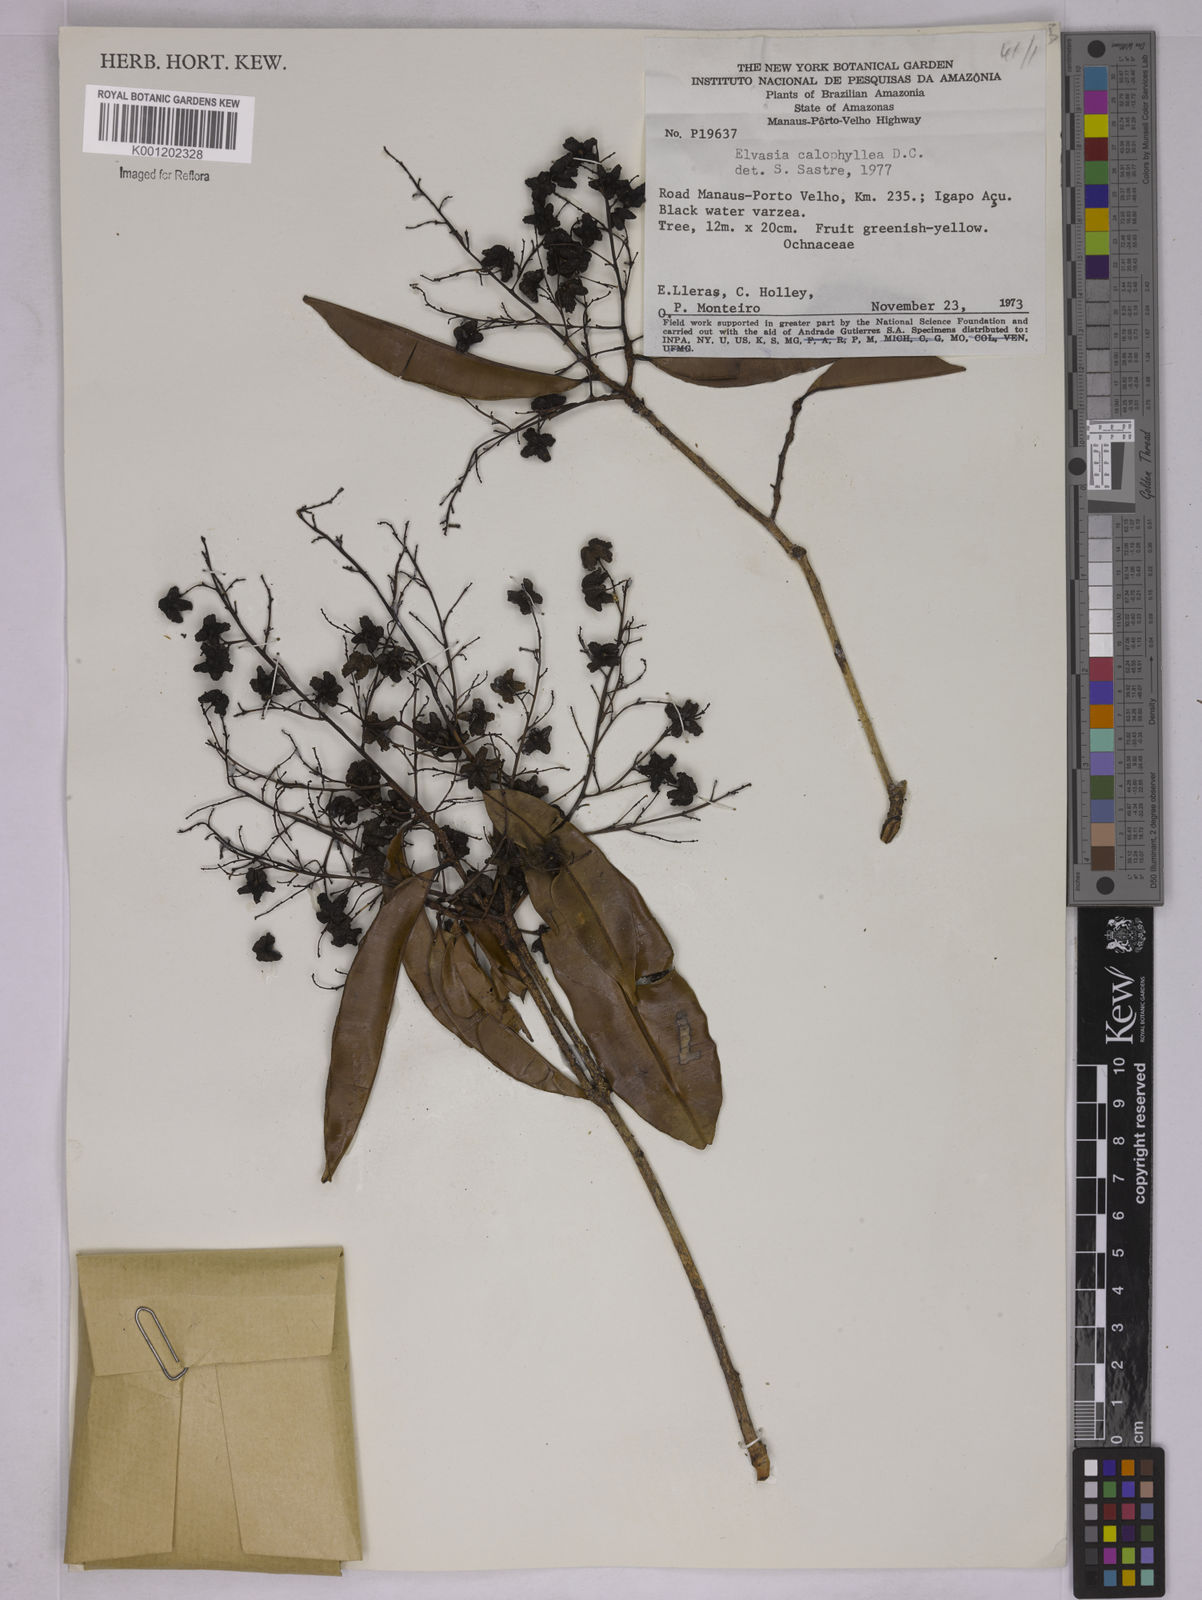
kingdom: Plantae
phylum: Tracheophyta
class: Magnoliopsida
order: Malpighiales
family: Ochnaceae
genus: Elvasia
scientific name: Elvasia calophyllea
